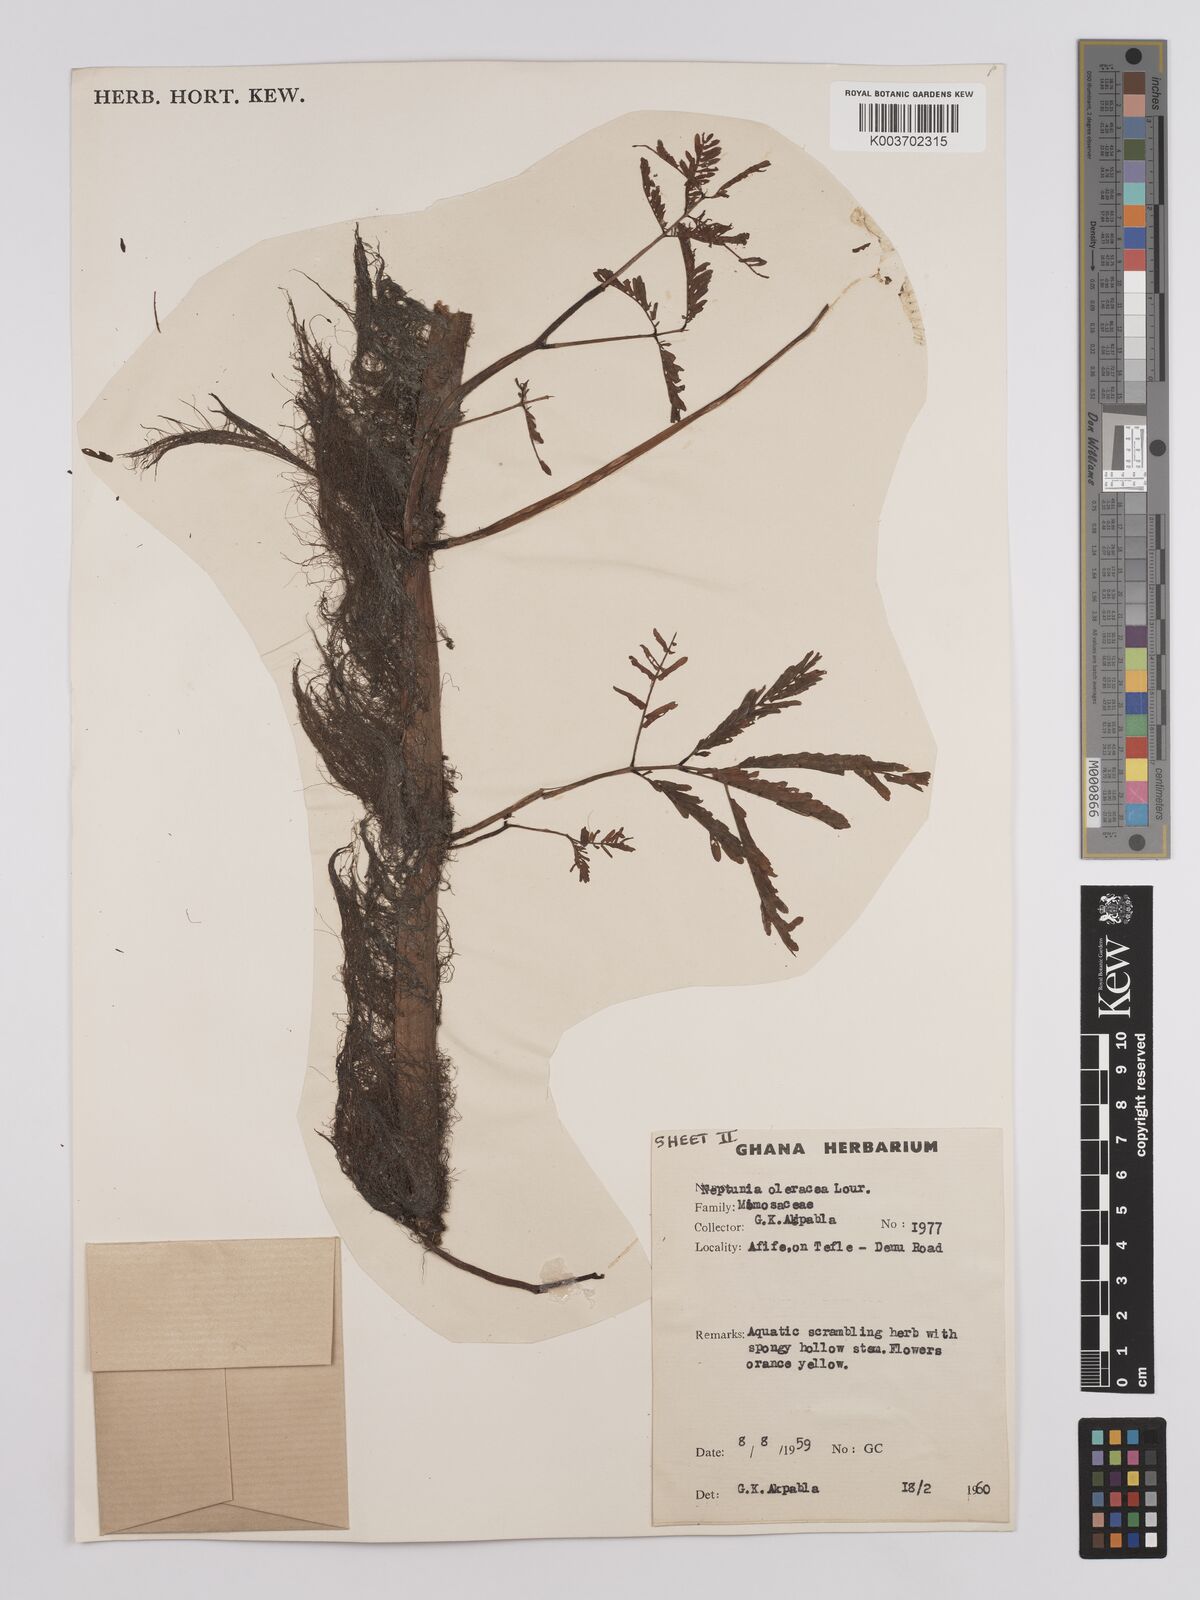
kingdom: Plantae
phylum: Tracheophyta
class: Magnoliopsida
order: Fabales
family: Fabaceae
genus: Neptunia
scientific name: Neptunia prostrata
